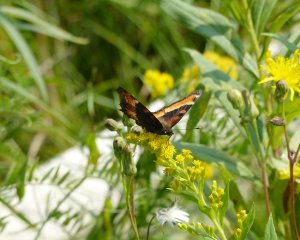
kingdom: Animalia
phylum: Arthropoda
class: Insecta
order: Lepidoptera
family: Nymphalidae
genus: Aglais
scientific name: Aglais milberti
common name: Milbert's Tortoiseshell
